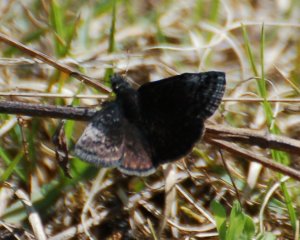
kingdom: Animalia
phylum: Arthropoda
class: Insecta
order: Lepidoptera
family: Hesperiidae
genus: Erynnis
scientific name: Erynnis icelus
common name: Dreamy Duskywing
